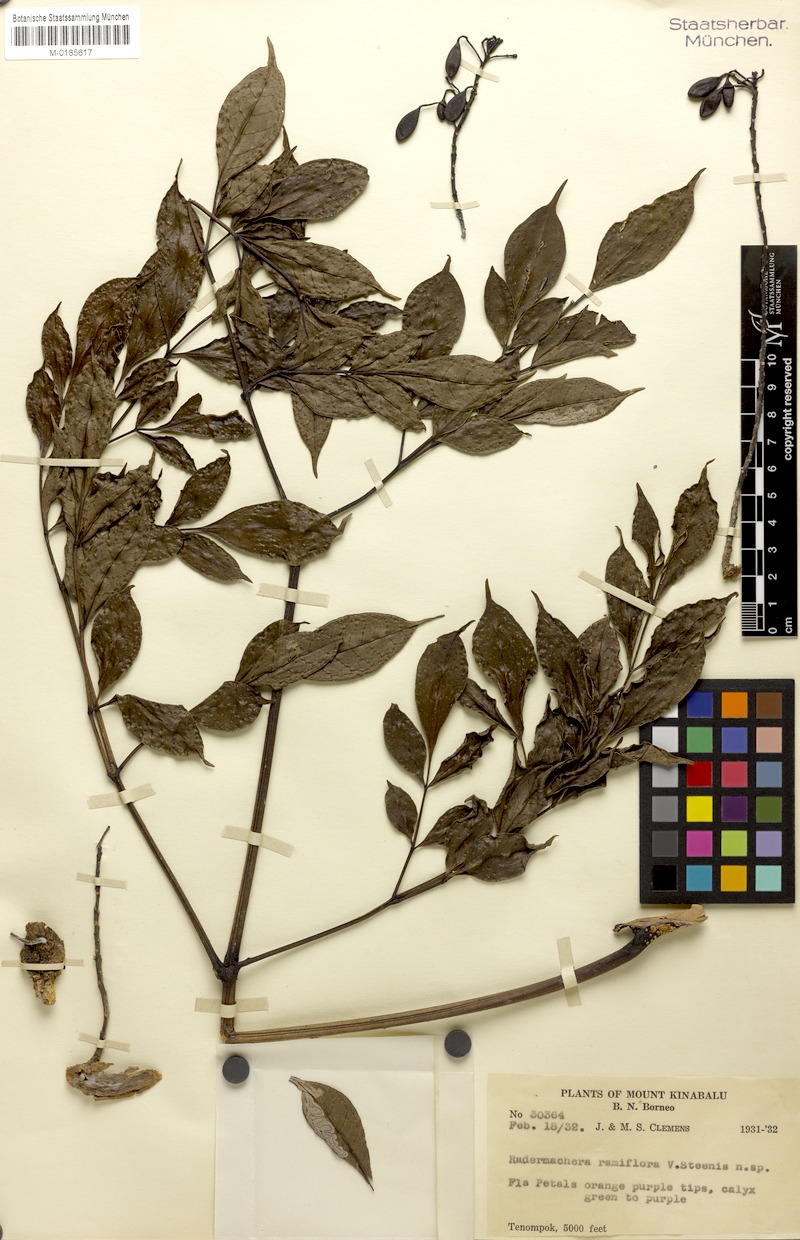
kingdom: Plantae
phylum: Tracheophyta
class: Magnoliopsida
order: Lamiales
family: Bignoniaceae
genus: Radermachera
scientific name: Radermachera ramiflora
